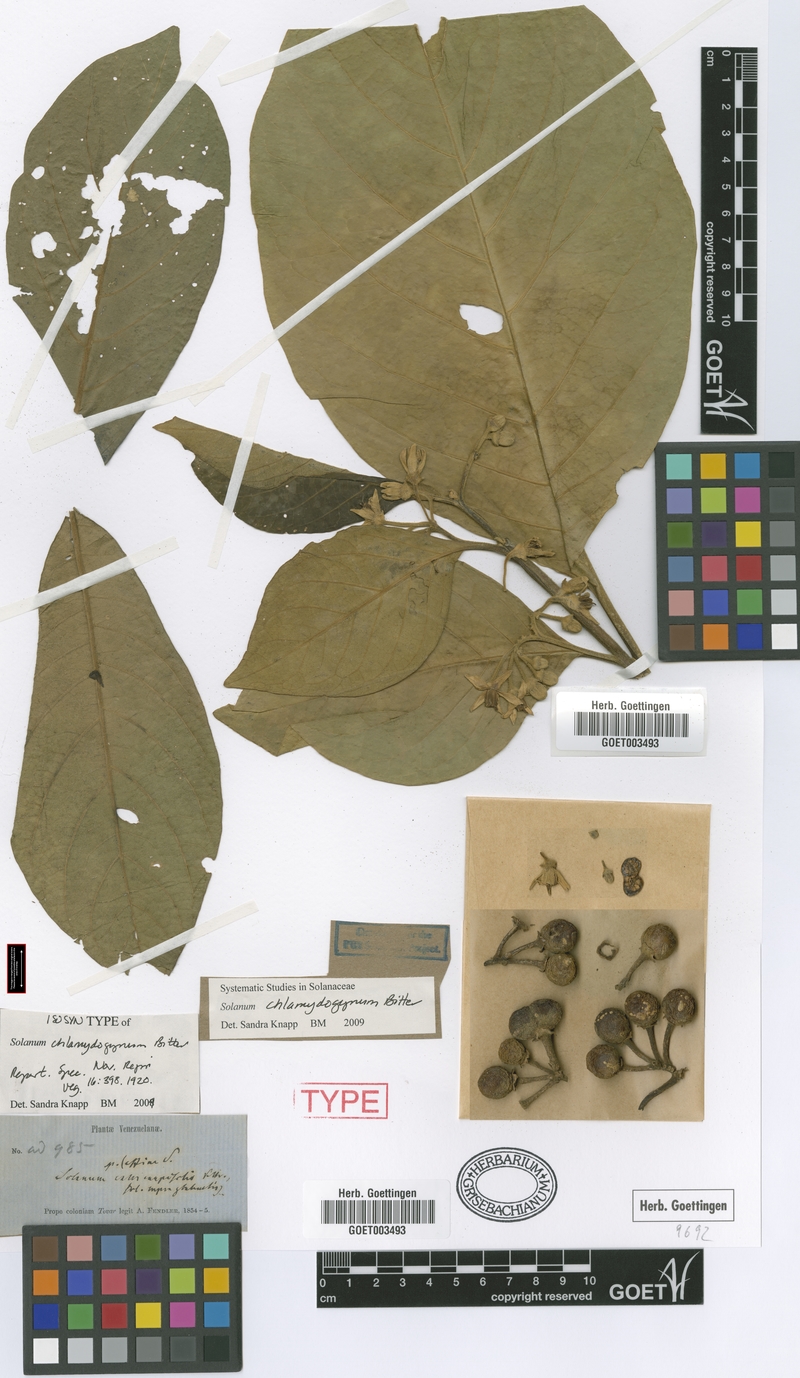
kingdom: Plantae
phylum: Tracheophyta
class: Magnoliopsida
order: Solanales
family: Solanaceae
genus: Solanum
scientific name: Solanum chlamydogynum
